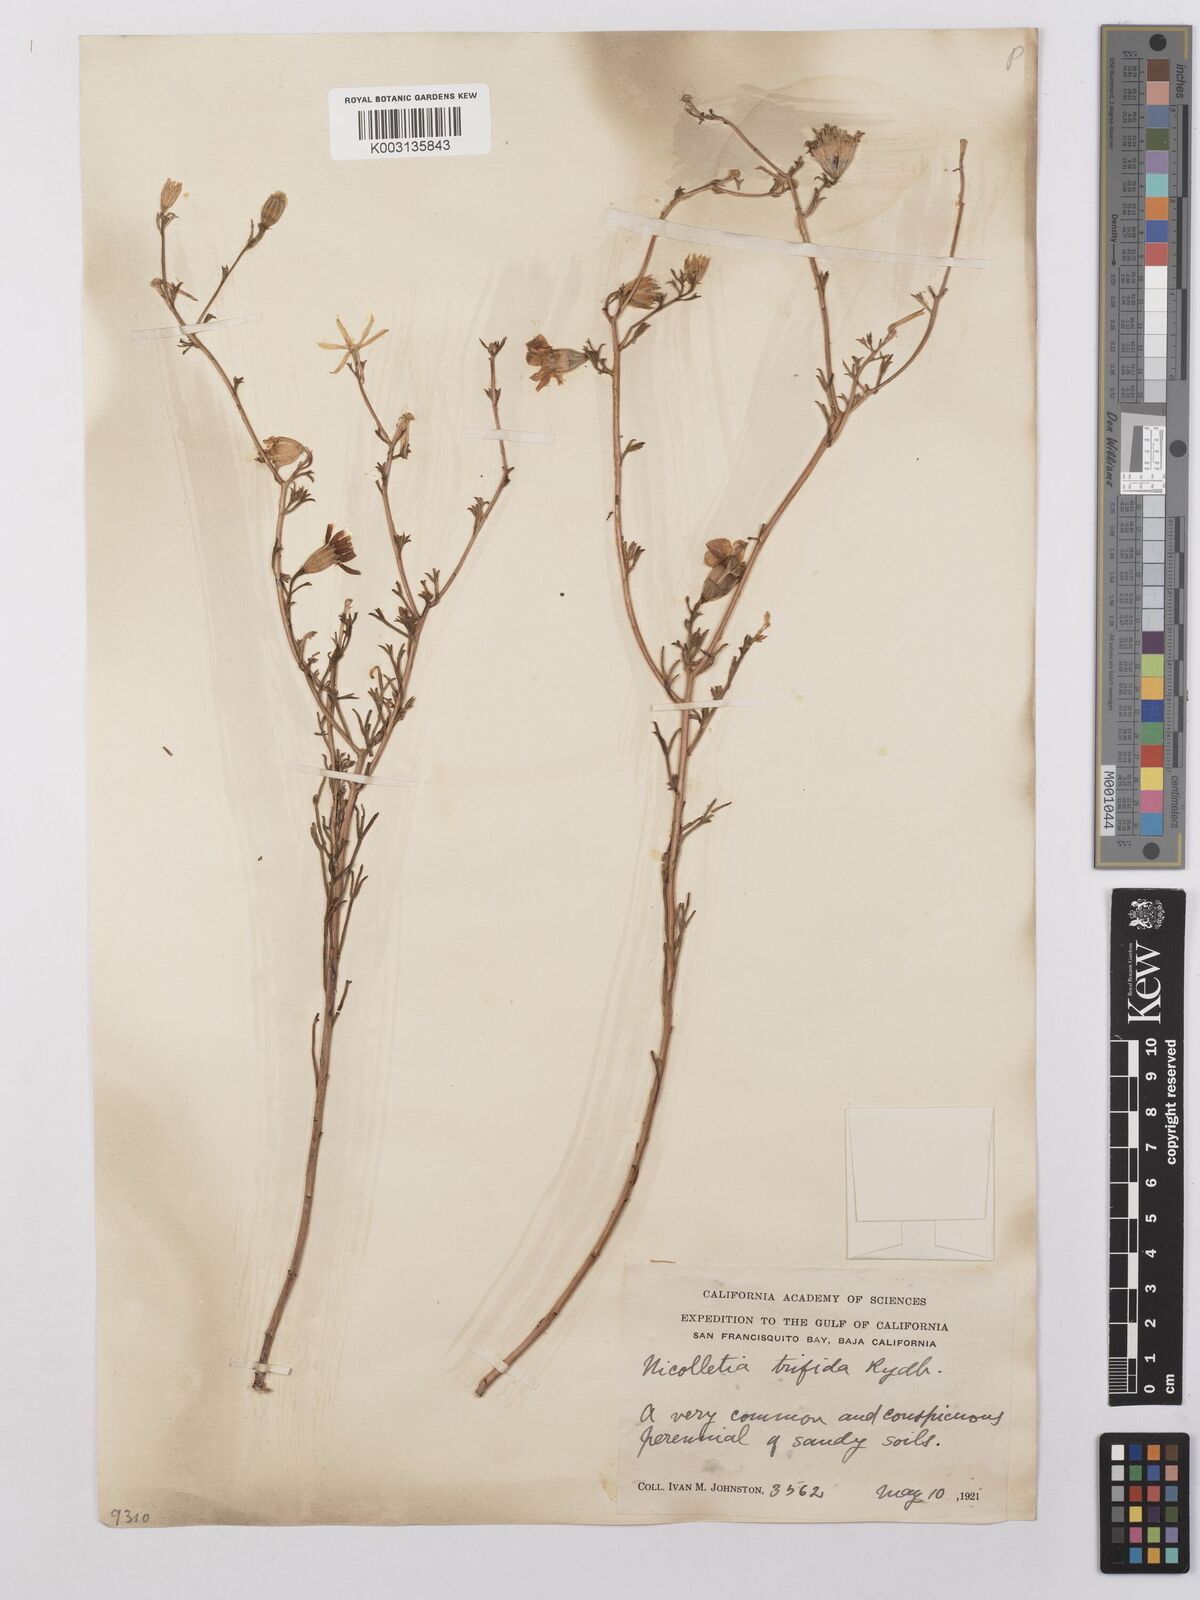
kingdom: Plantae
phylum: Tracheophyta
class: Magnoliopsida
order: Asterales
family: Asteraceae
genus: Nicolletia
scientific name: Nicolletia trifida
